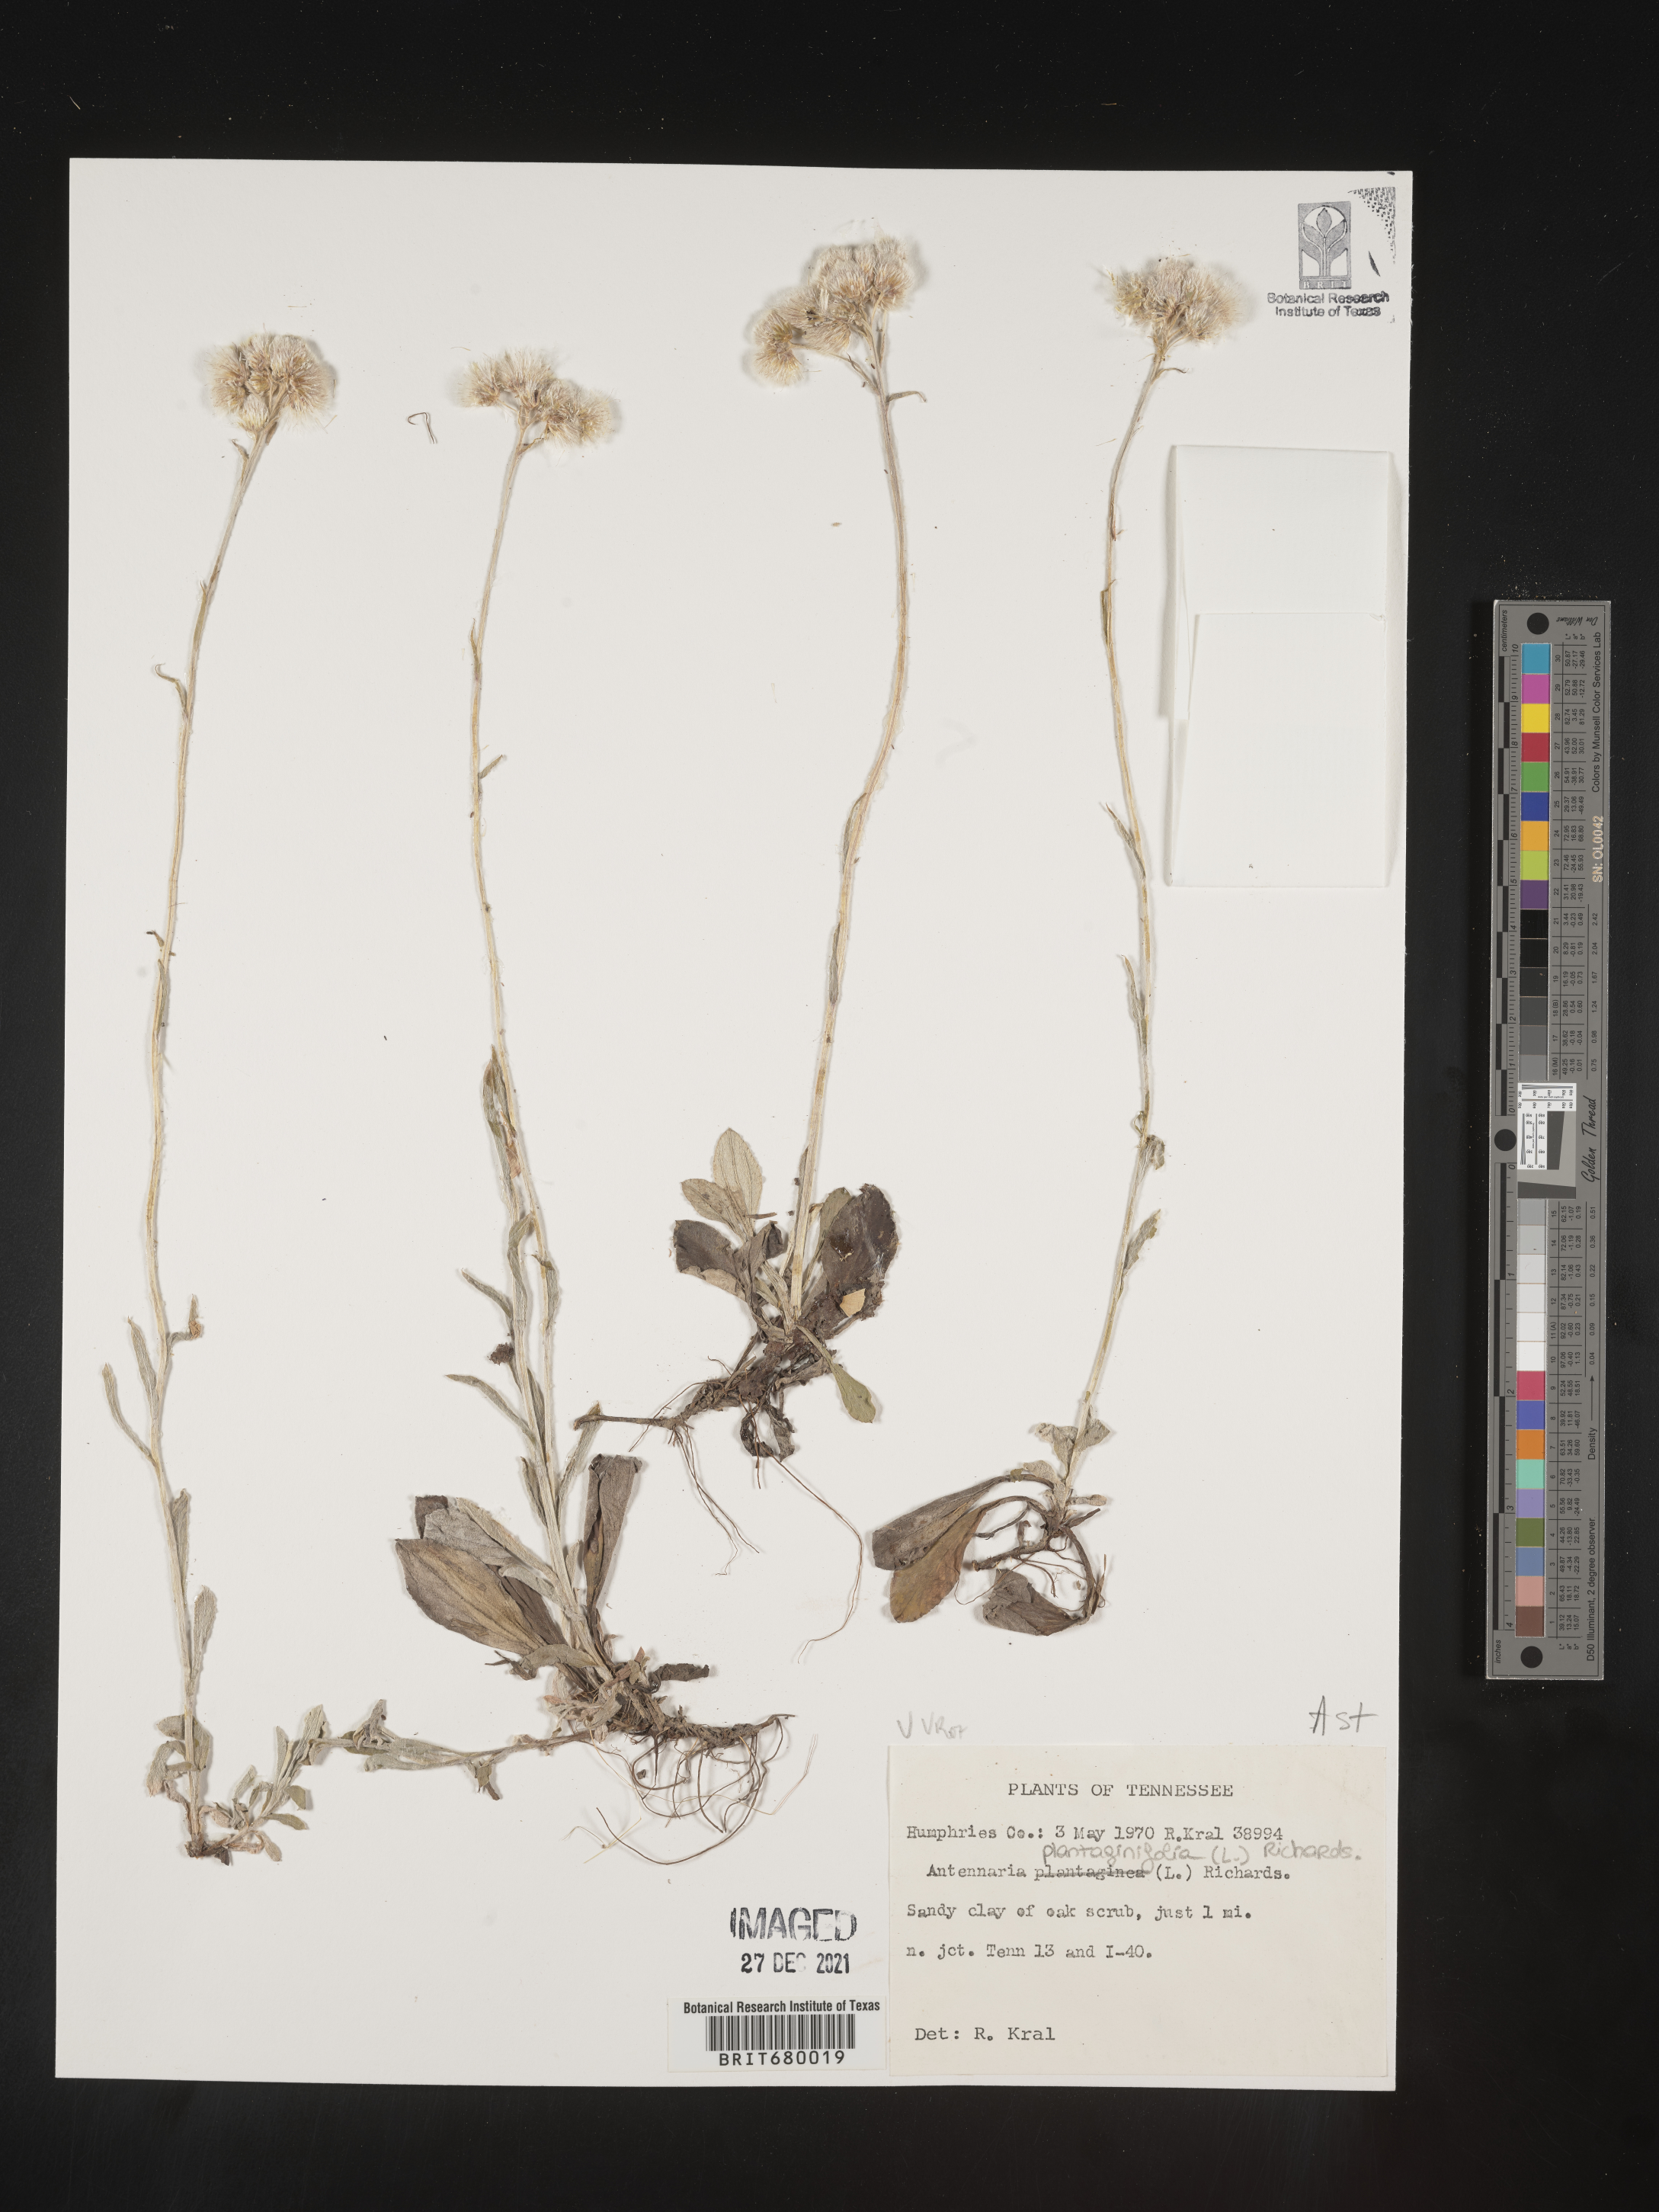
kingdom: Plantae
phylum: Tracheophyta
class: Magnoliopsida
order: Asterales
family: Asteraceae
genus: Antennaria
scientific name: Antennaria plantaginifolia
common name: Plantain-leaved pussytoes
